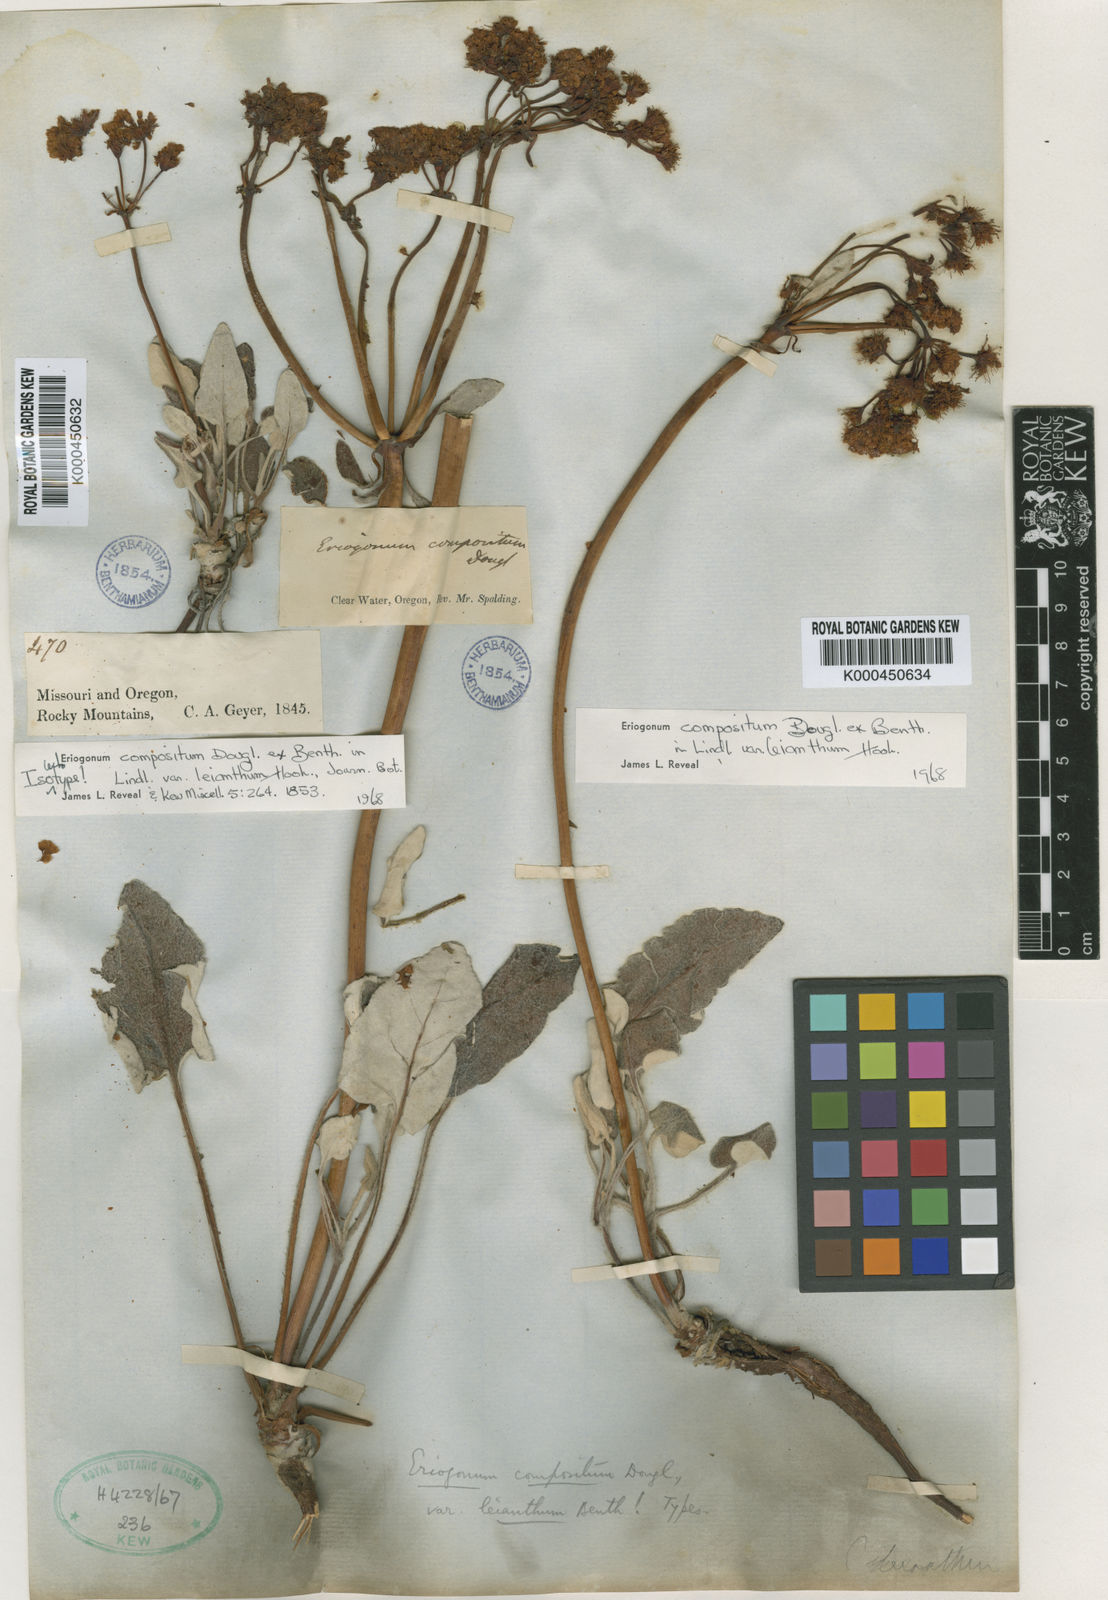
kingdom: Plantae
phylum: Tracheophyta
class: Magnoliopsida
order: Caryophyllales
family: Polygonaceae
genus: Eriogonum
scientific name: Eriogonum
